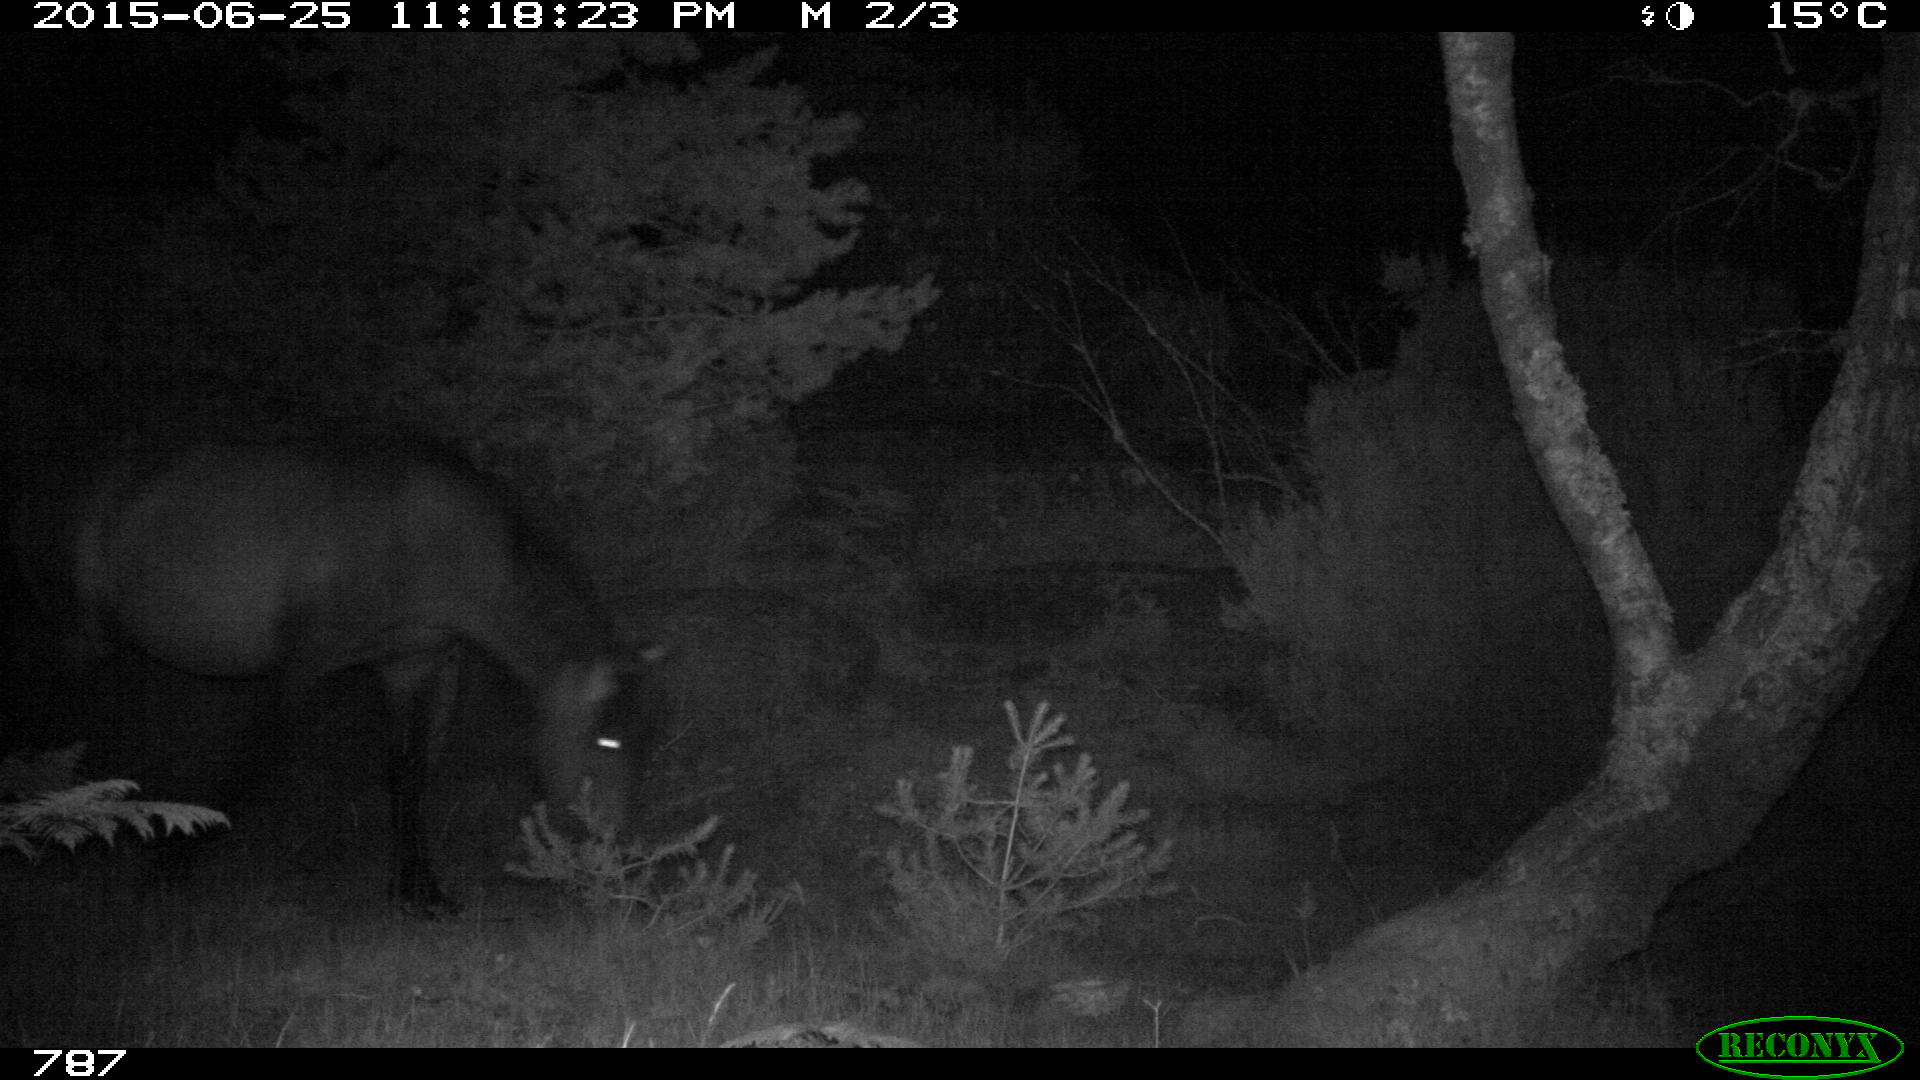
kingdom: Animalia
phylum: Chordata
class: Mammalia
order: Perissodactyla
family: Equidae
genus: Equus
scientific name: Equus caballus
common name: Horse
